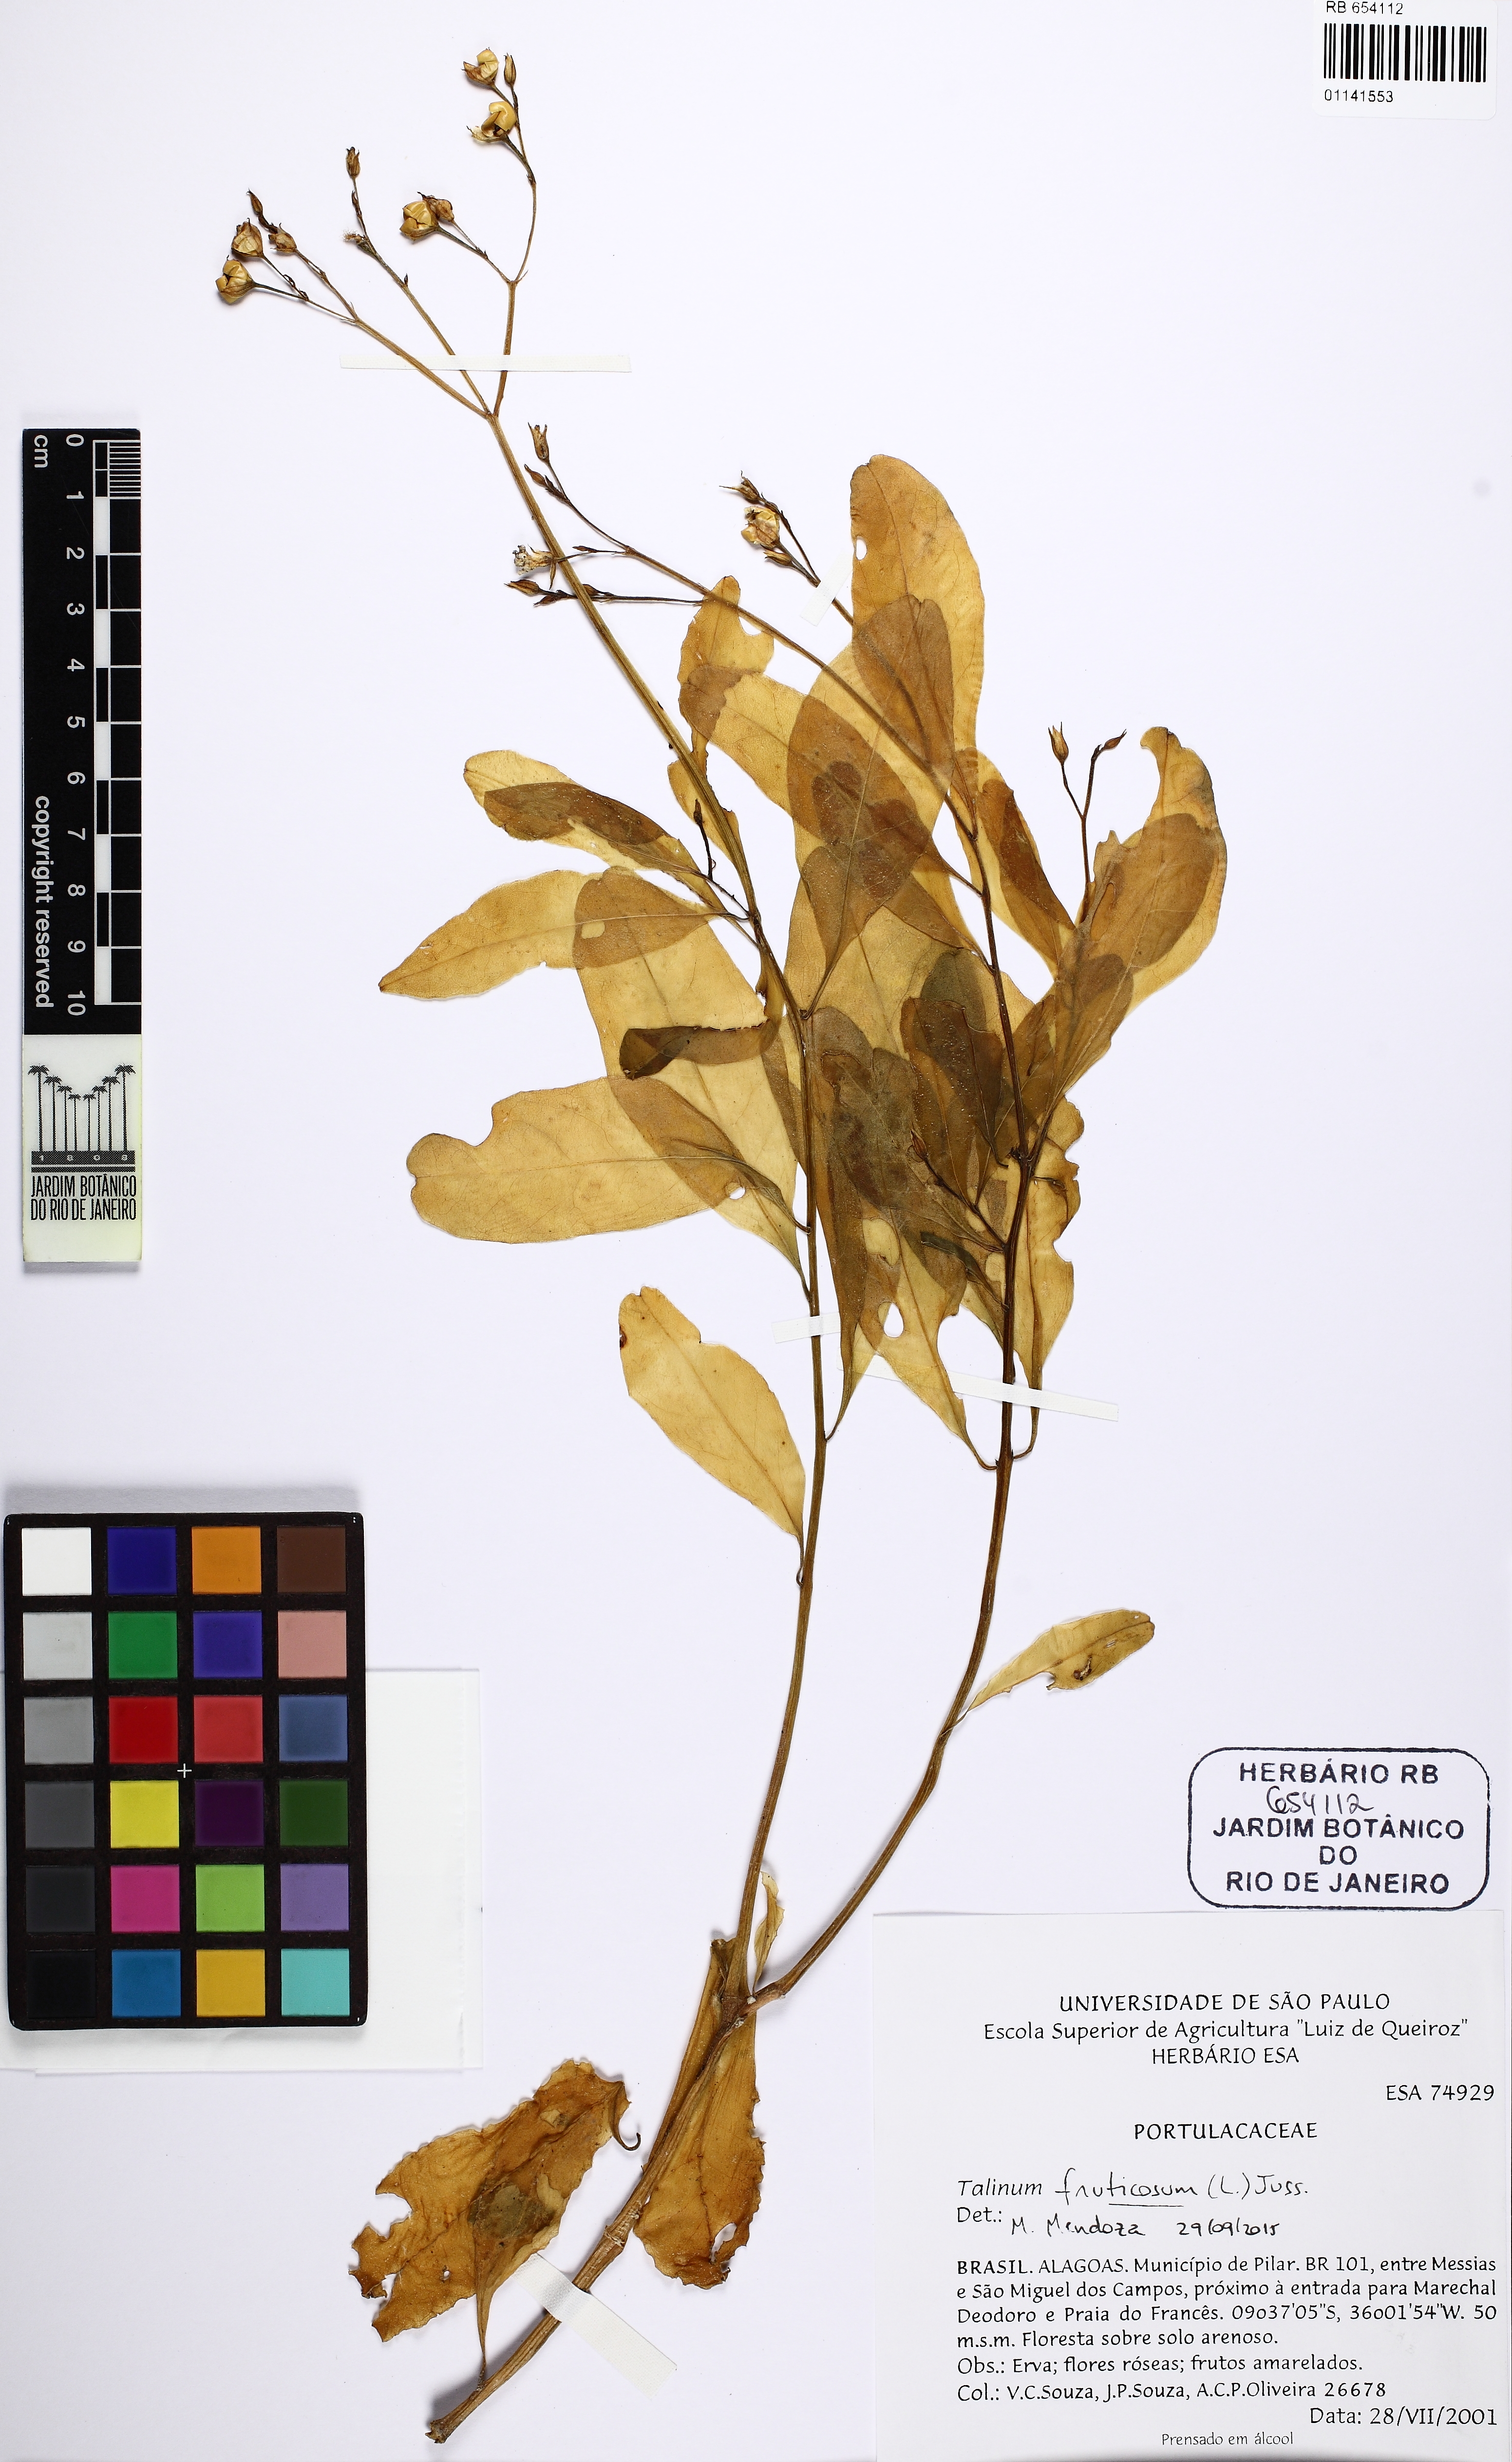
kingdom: Plantae
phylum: Tracheophyta
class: Magnoliopsida
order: Caryophyllales
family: Talinaceae
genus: Talinum
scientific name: Talinum fruticosum
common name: Verdolaga-francesa
